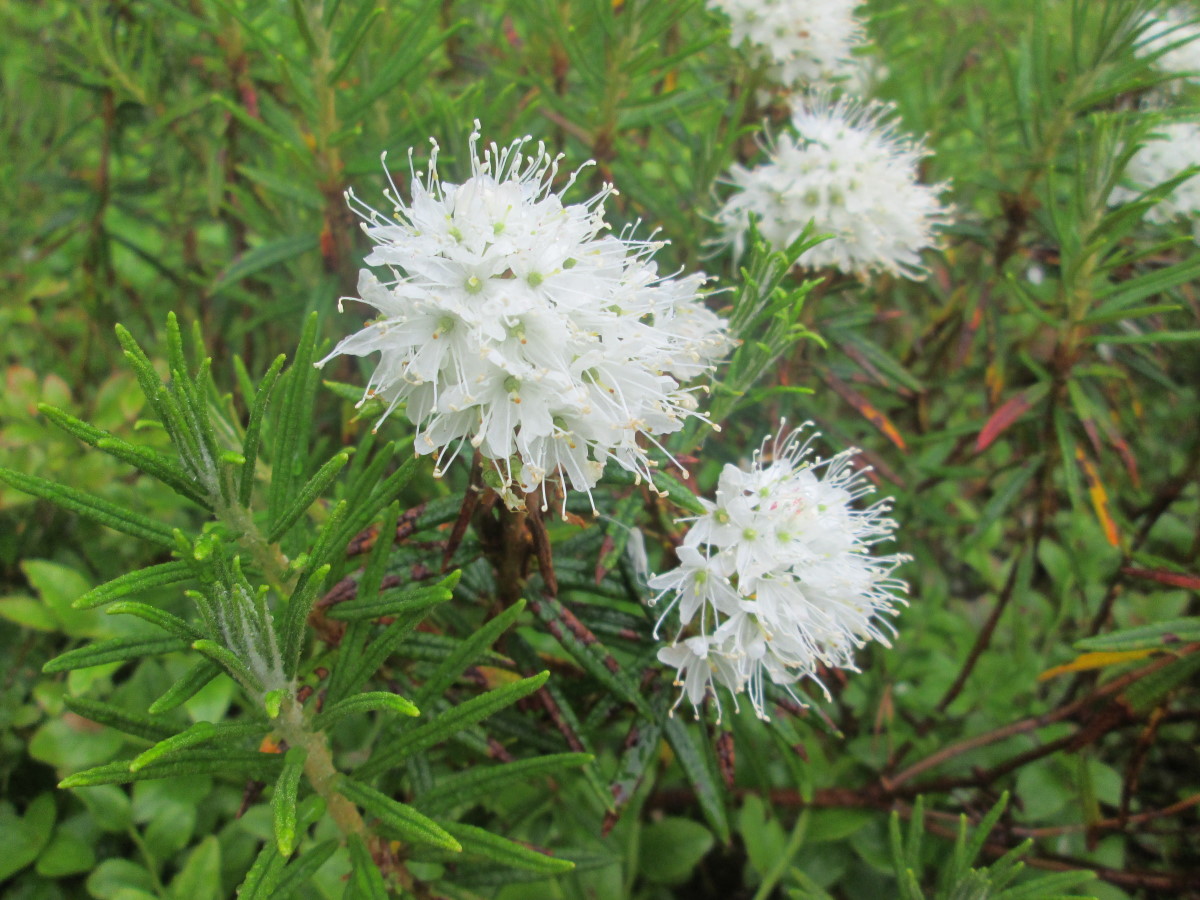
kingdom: Plantae
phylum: Tracheophyta
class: Magnoliopsida
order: Ericales
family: Ericaceae
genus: Rhododendron
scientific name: Rhododendron tomentosum
